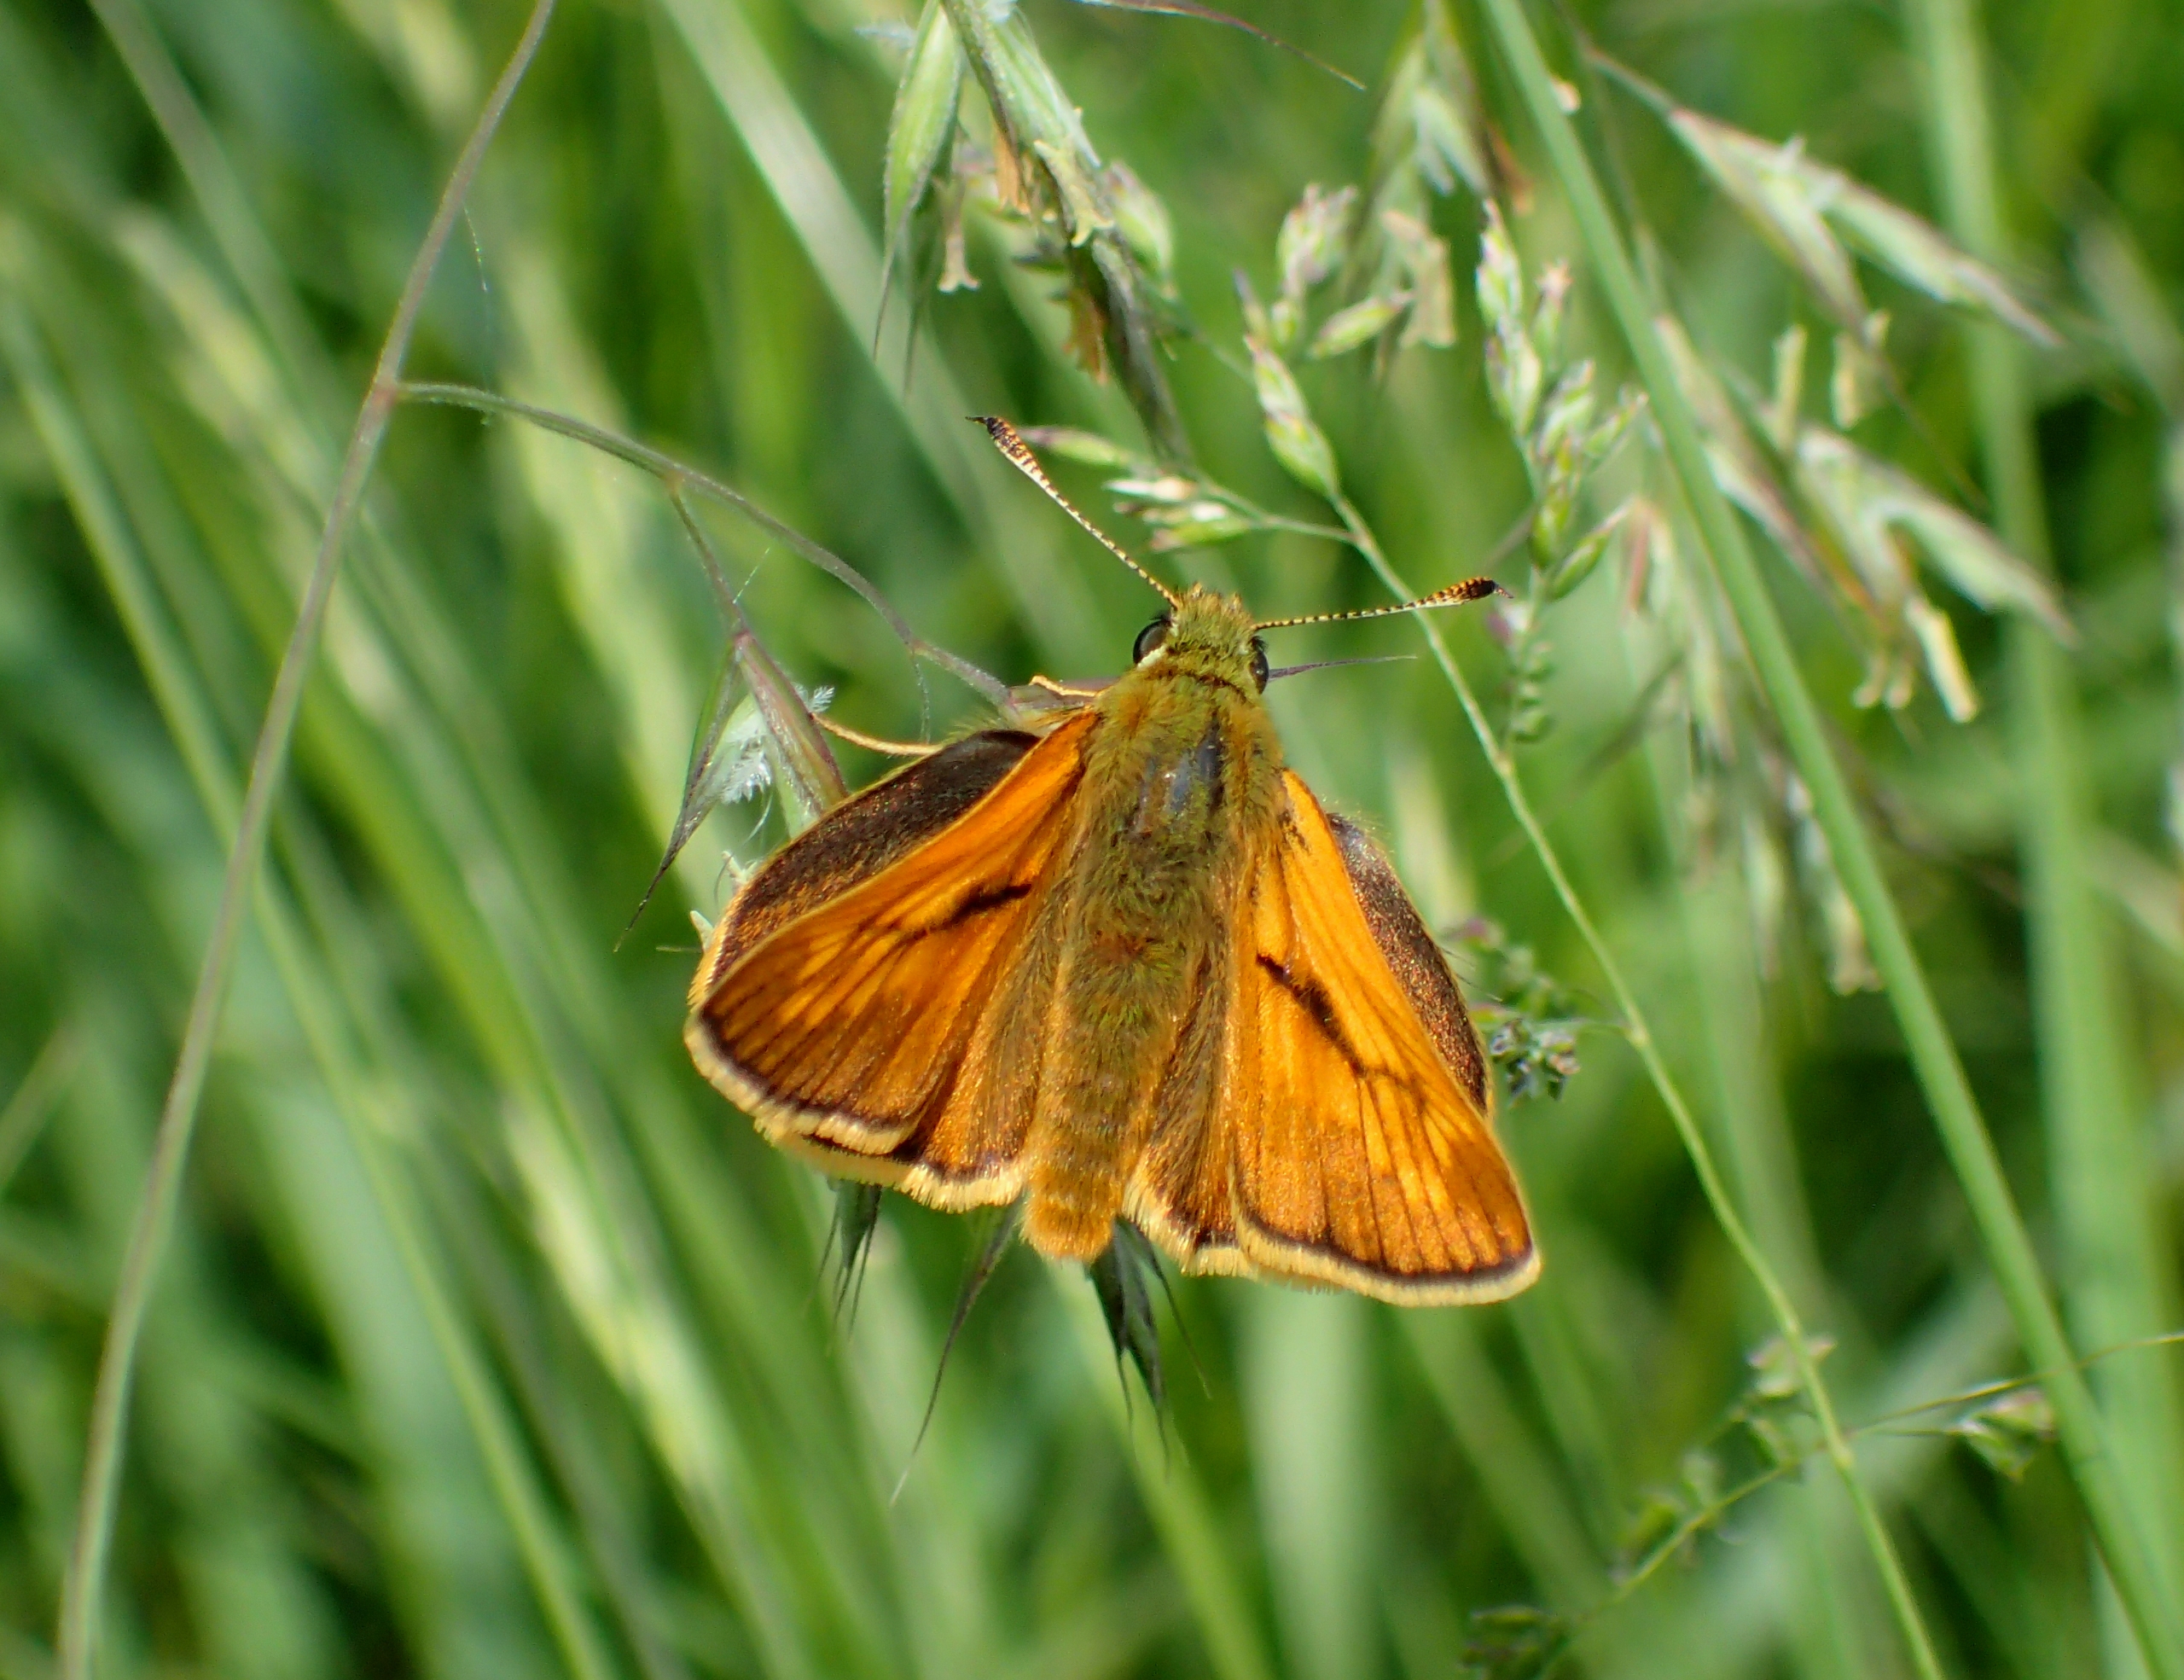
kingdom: Animalia
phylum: Arthropoda
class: Insecta
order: Lepidoptera
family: Hesperiidae
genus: Ochlodes
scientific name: Ochlodes venata
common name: Stor bredpande
